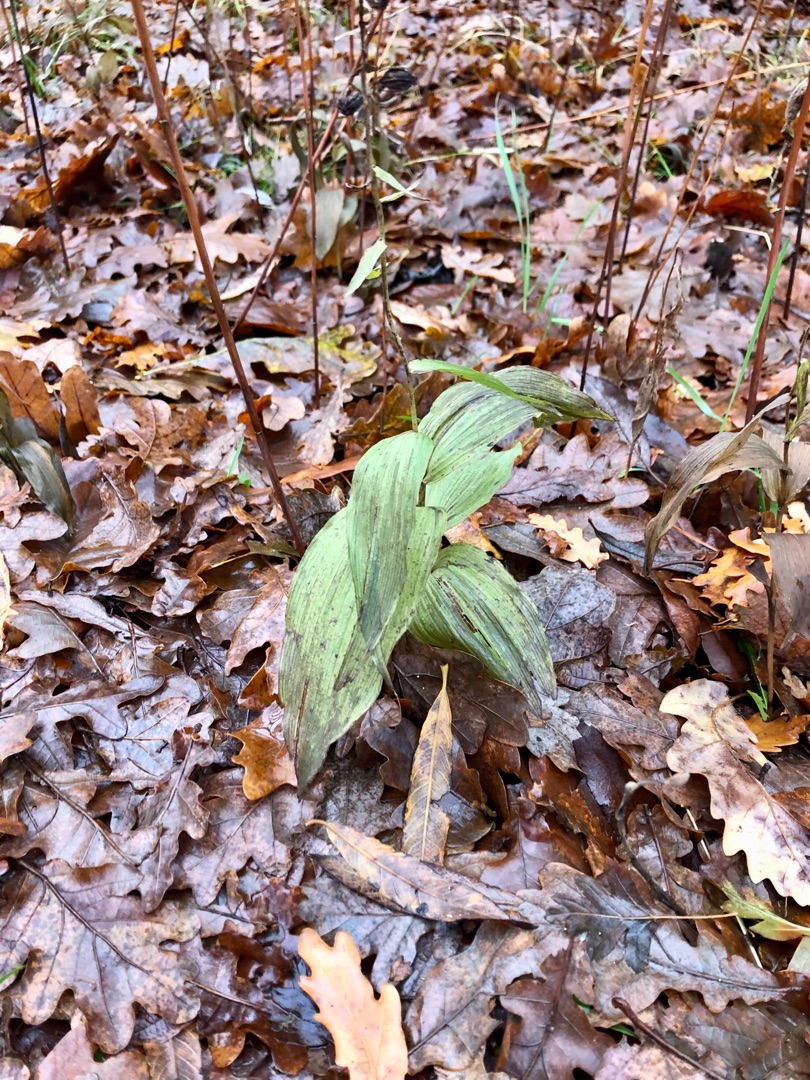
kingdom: Plantae
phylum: Tracheophyta
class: Liliopsida
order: Asparagales
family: Orchidaceae
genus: Epipactis
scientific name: Epipactis helleborine
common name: Skov-hullæbe
